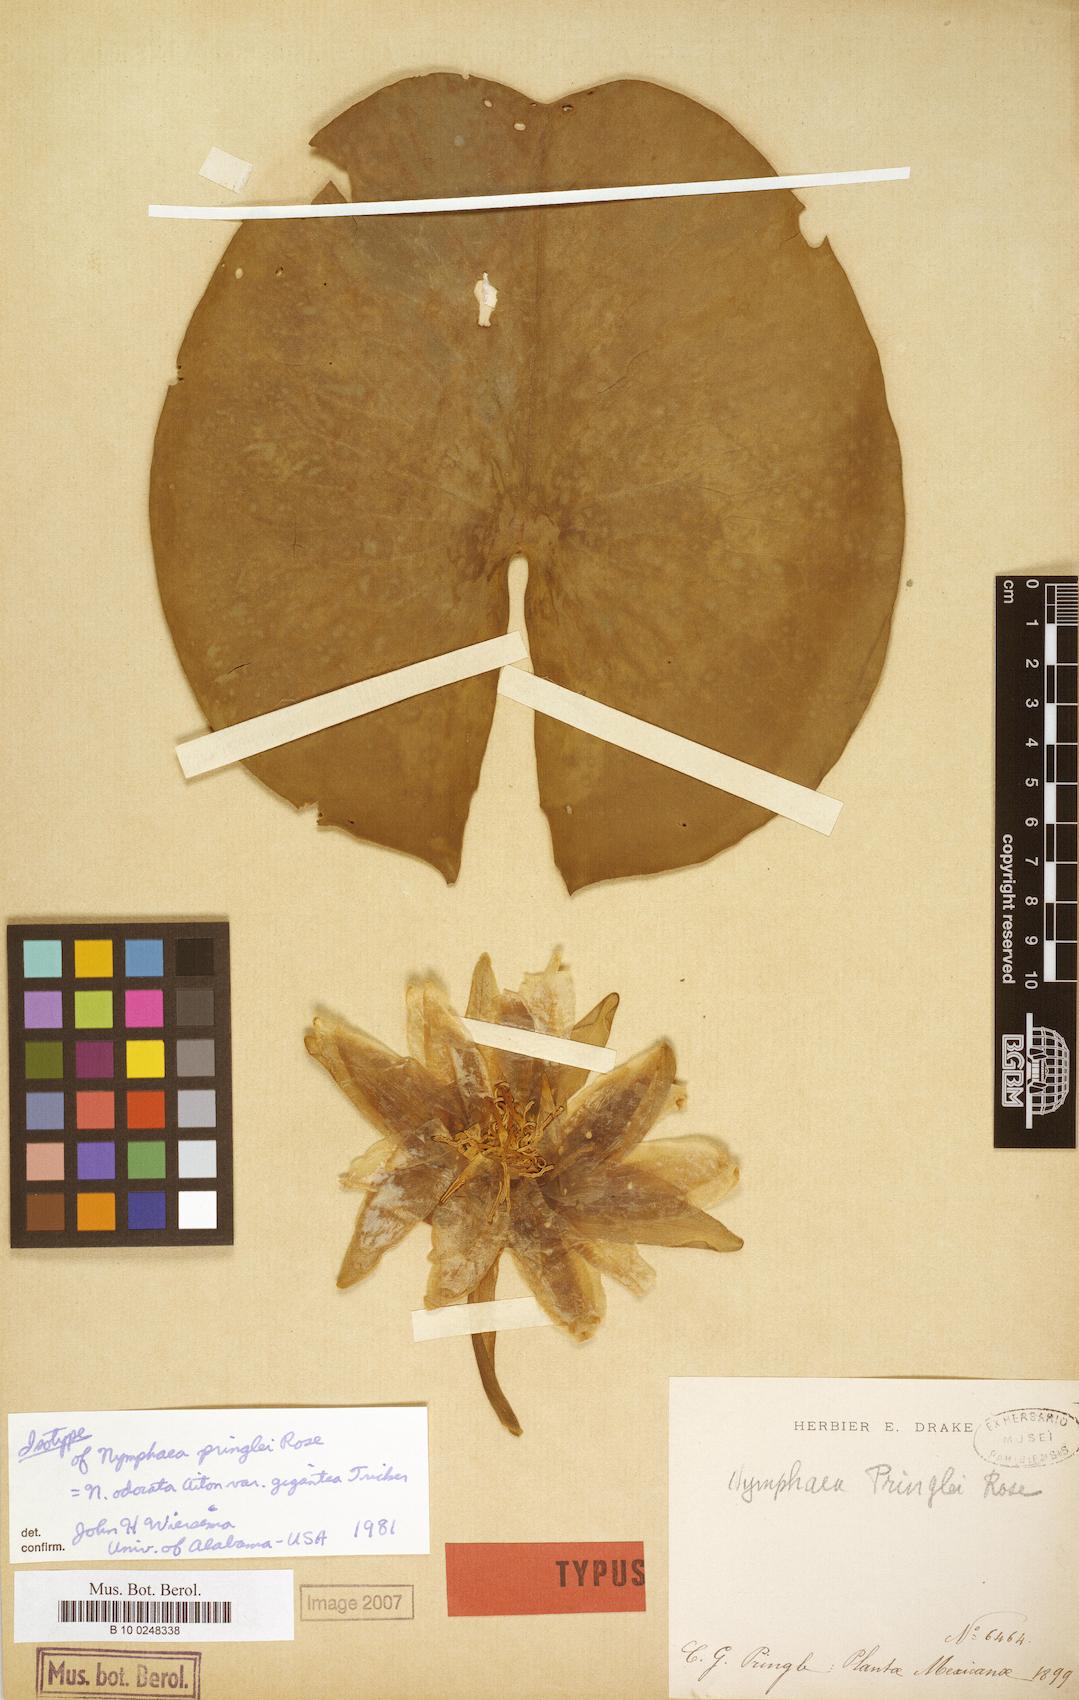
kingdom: Plantae
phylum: Tracheophyta
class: Magnoliopsida
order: Nymphaeales
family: Nymphaeaceae
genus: Nymphaea
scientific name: Nymphaea odorata
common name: Fragrant water-lily
